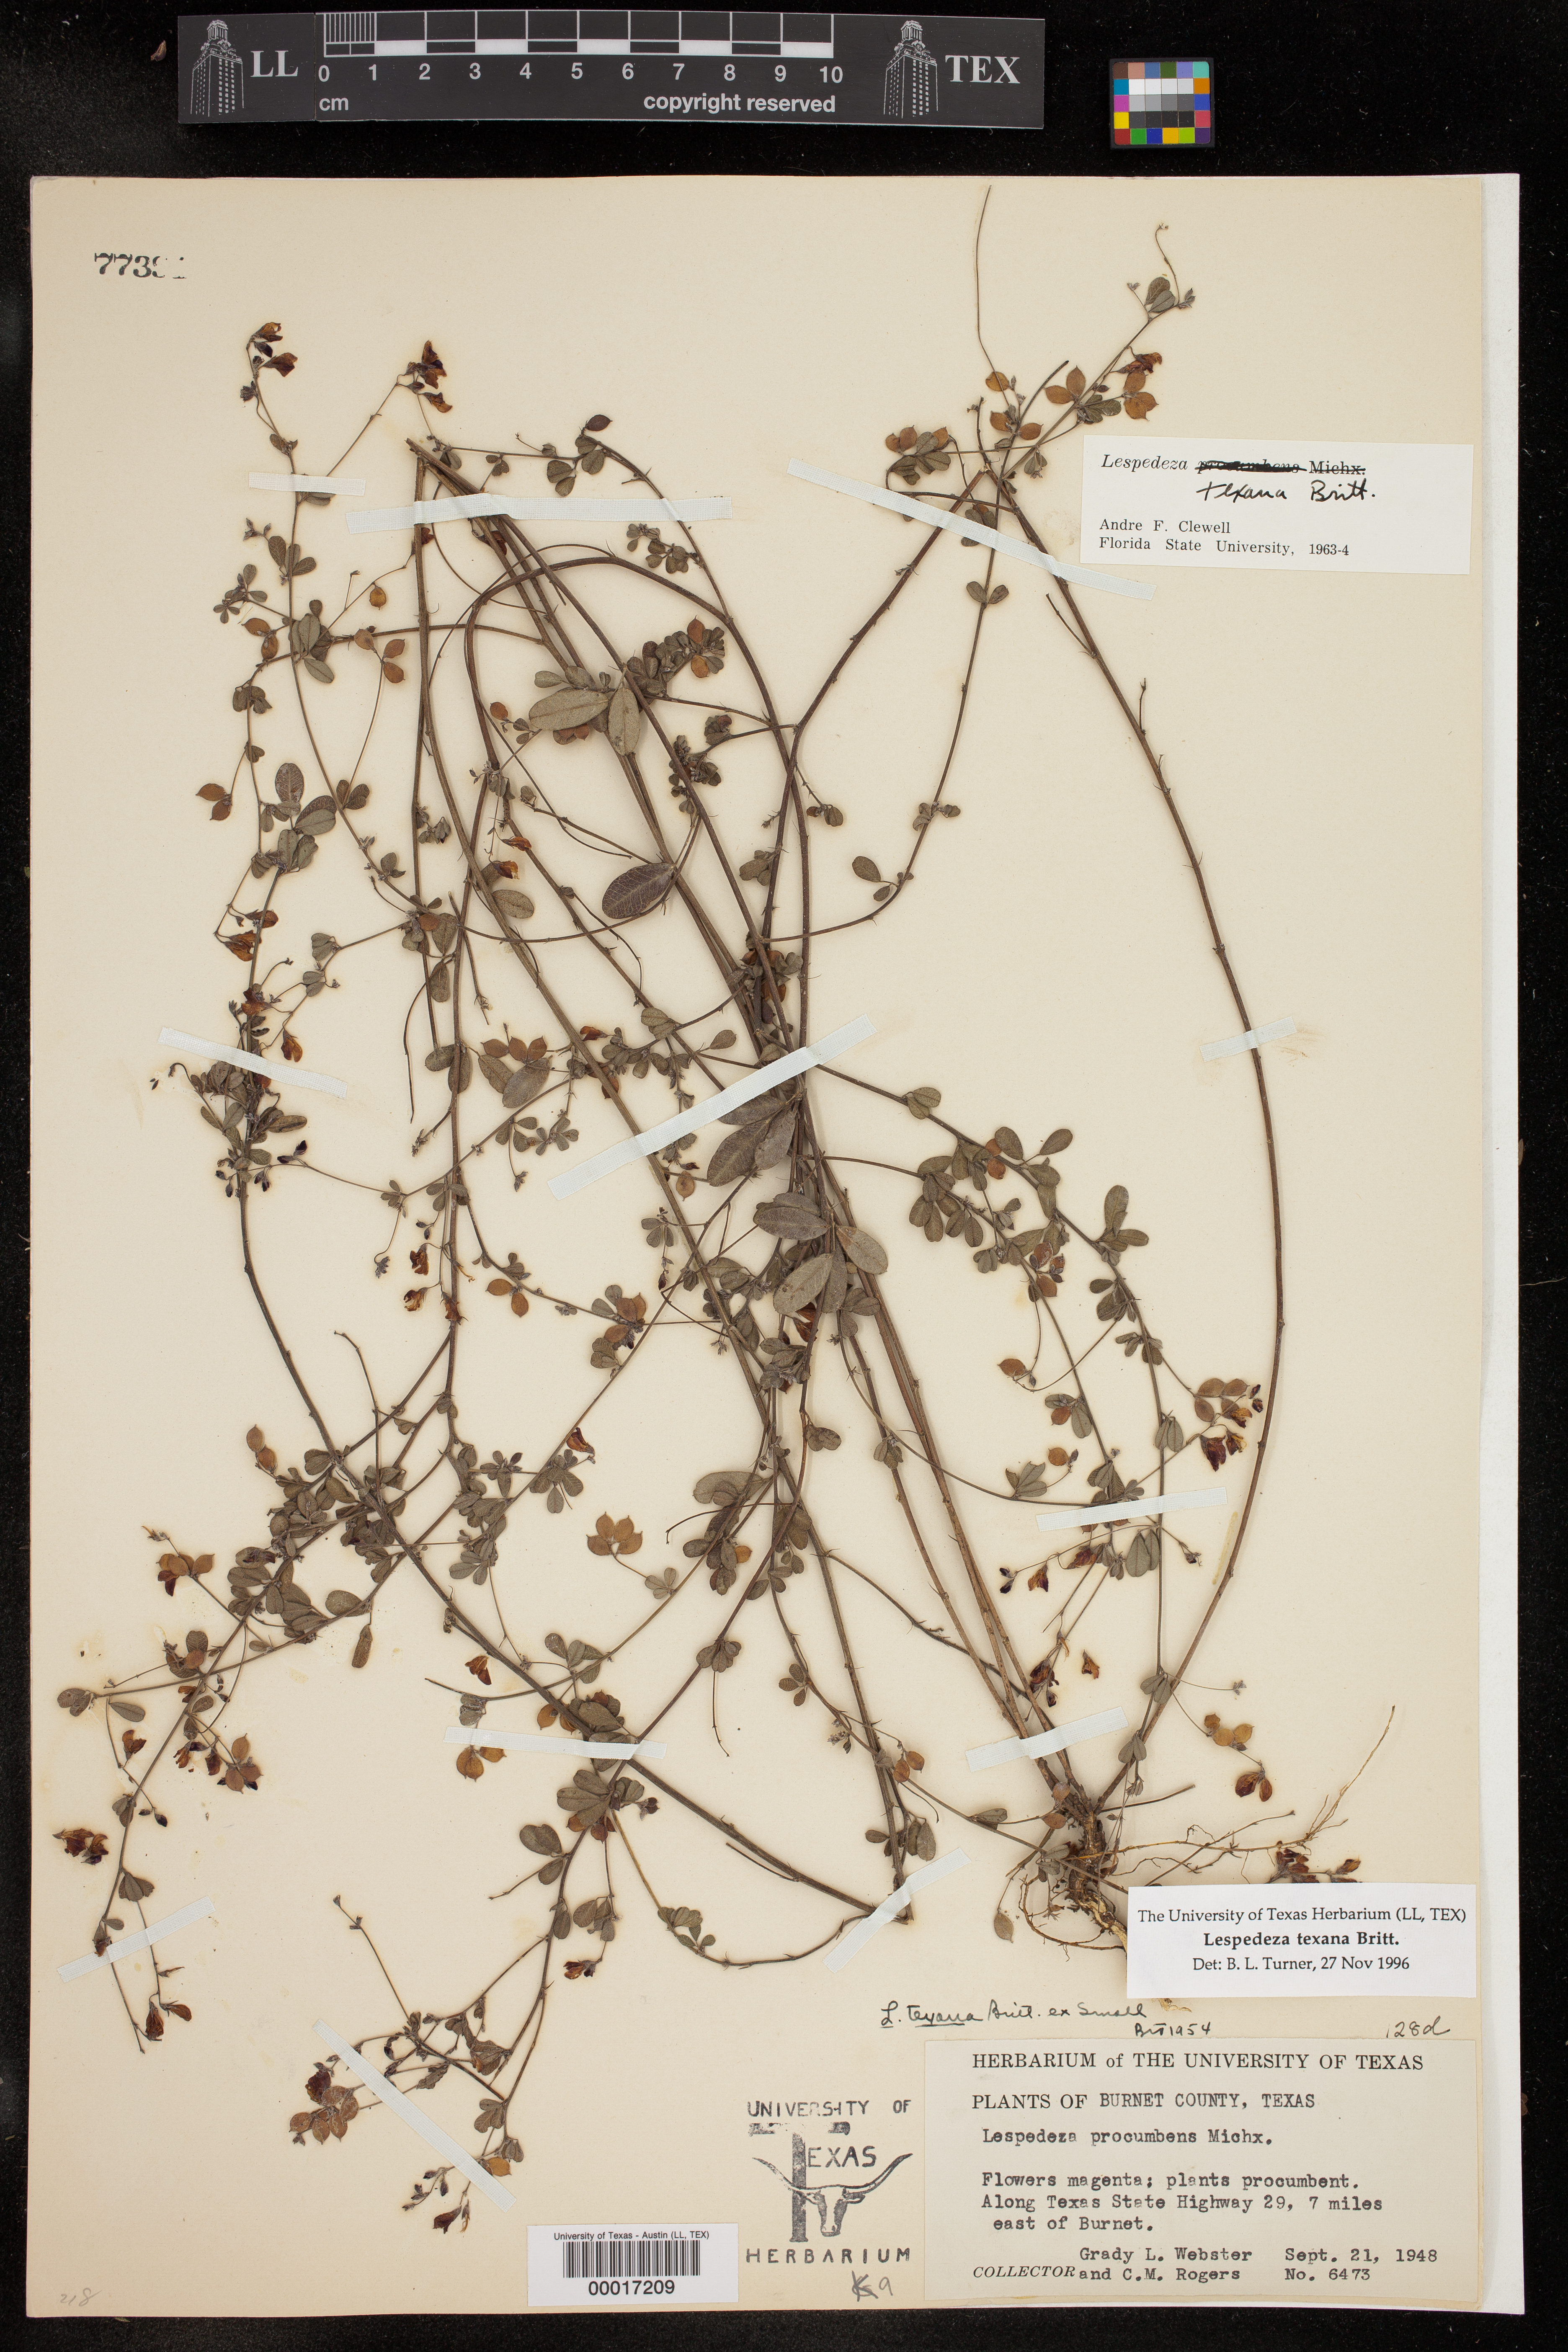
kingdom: Plantae
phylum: Tracheophyta
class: Magnoliopsida
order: Fabales
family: Fabaceae
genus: Lespedeza
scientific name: Lespedeza texana
